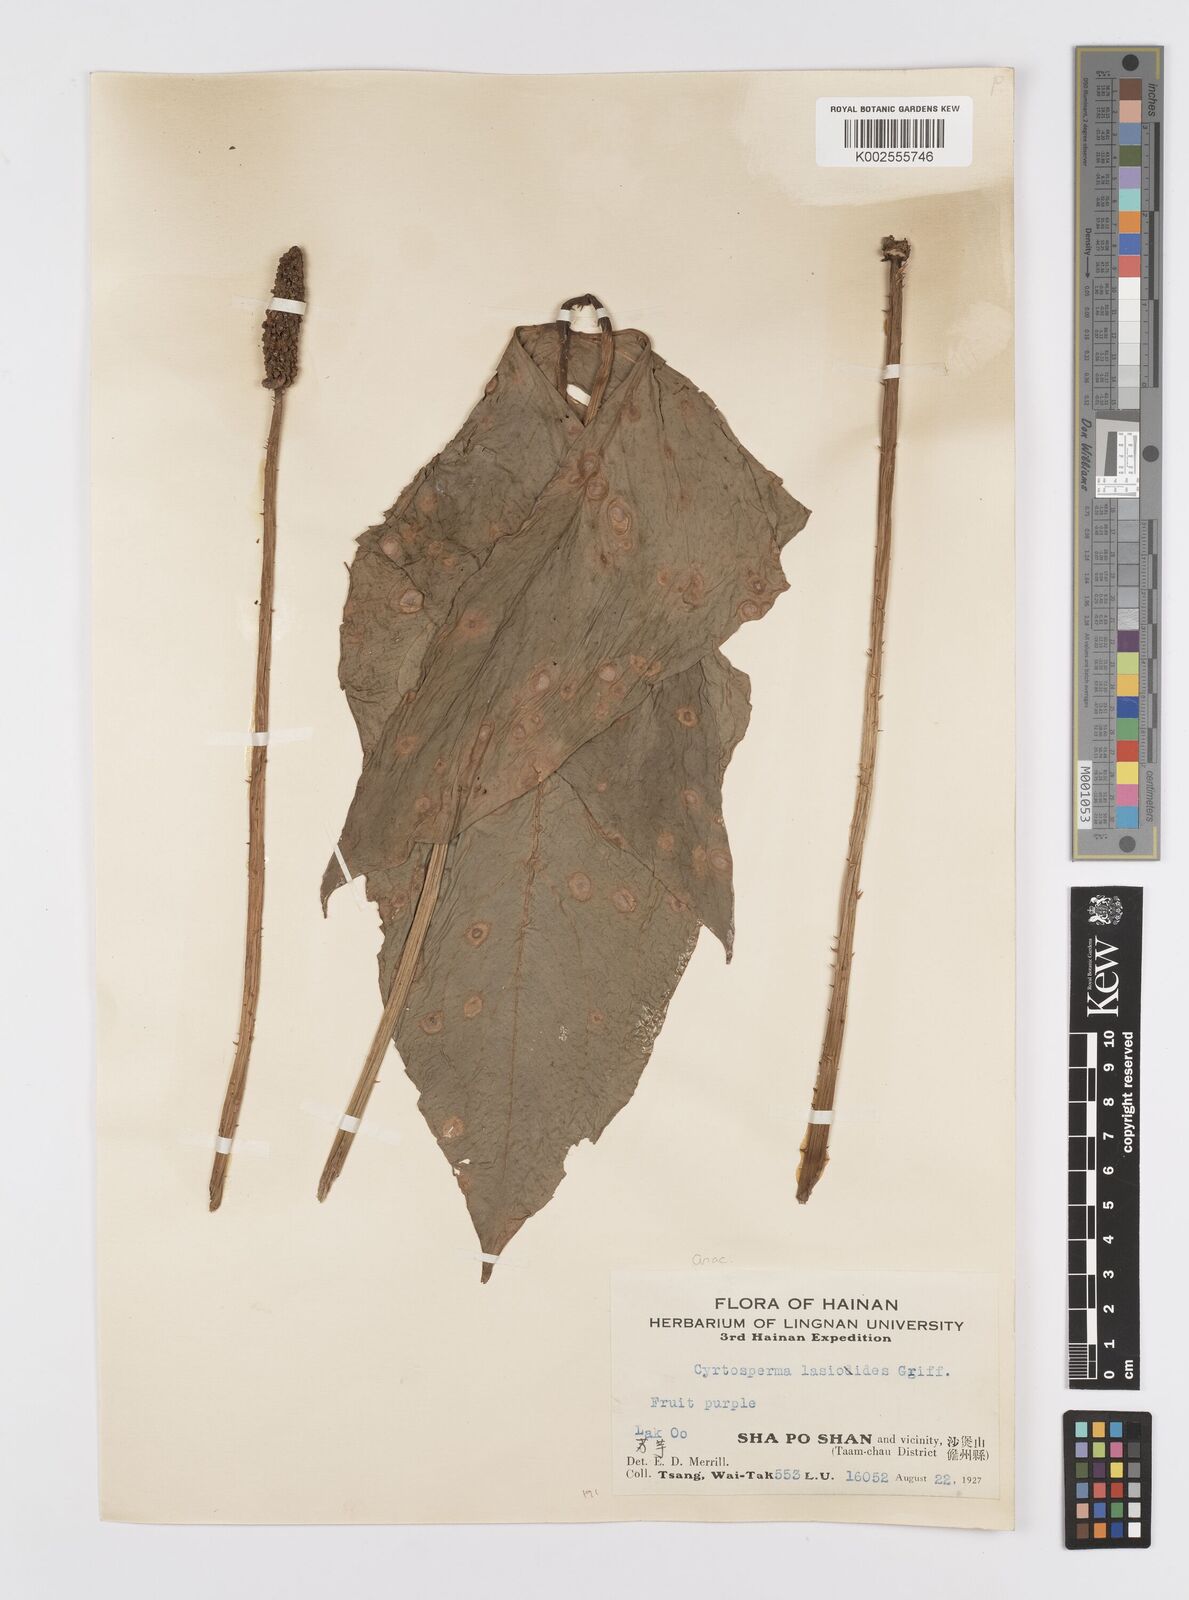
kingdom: Plantae
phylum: Tracheophyta
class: Liliopsida
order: Alismatales
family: Araceae
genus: Lasia
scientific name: Lasia spinosa
